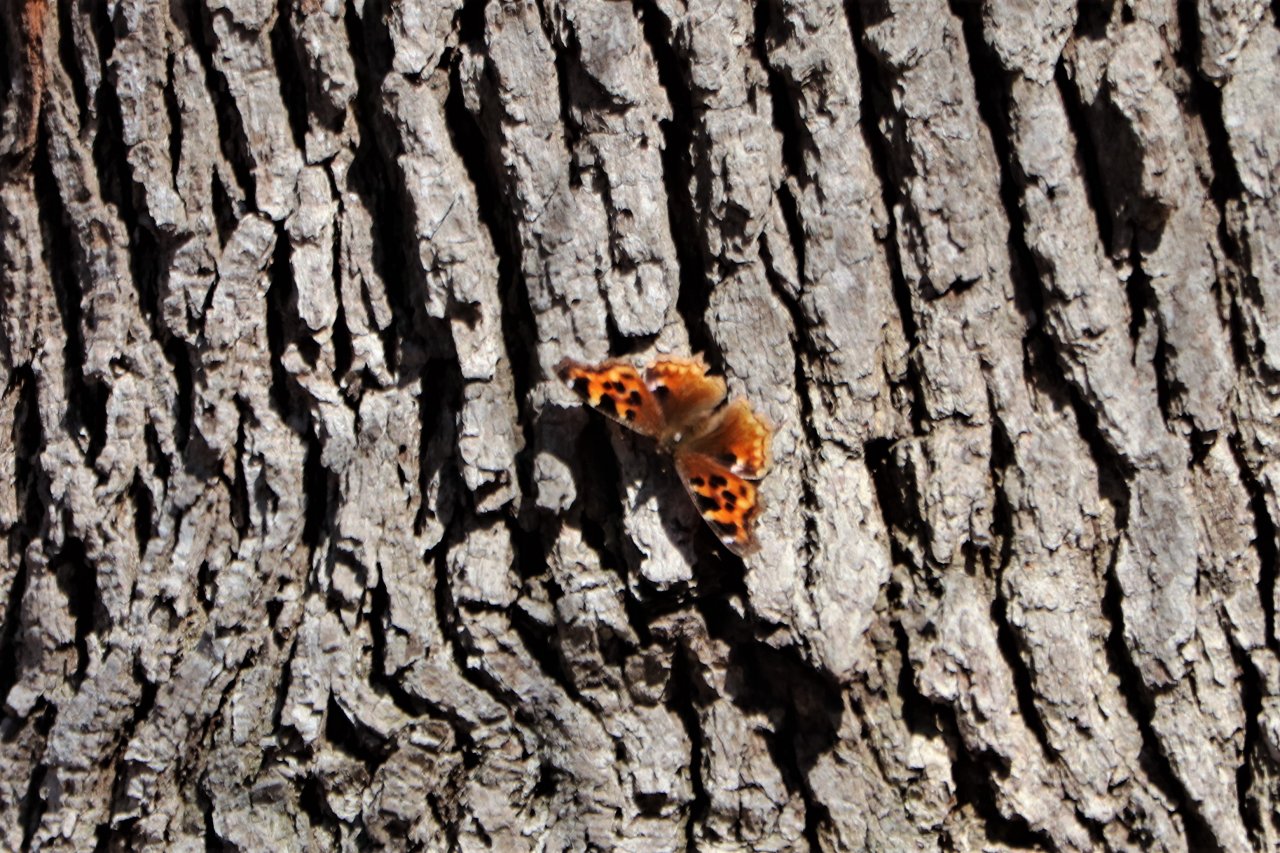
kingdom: Animalia
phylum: Arthropoda
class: Insecta
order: Lepidoptera
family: Nymphalidae
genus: Polygonia
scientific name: Polygonia vaualbum
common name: Compton Tortoiseshell
